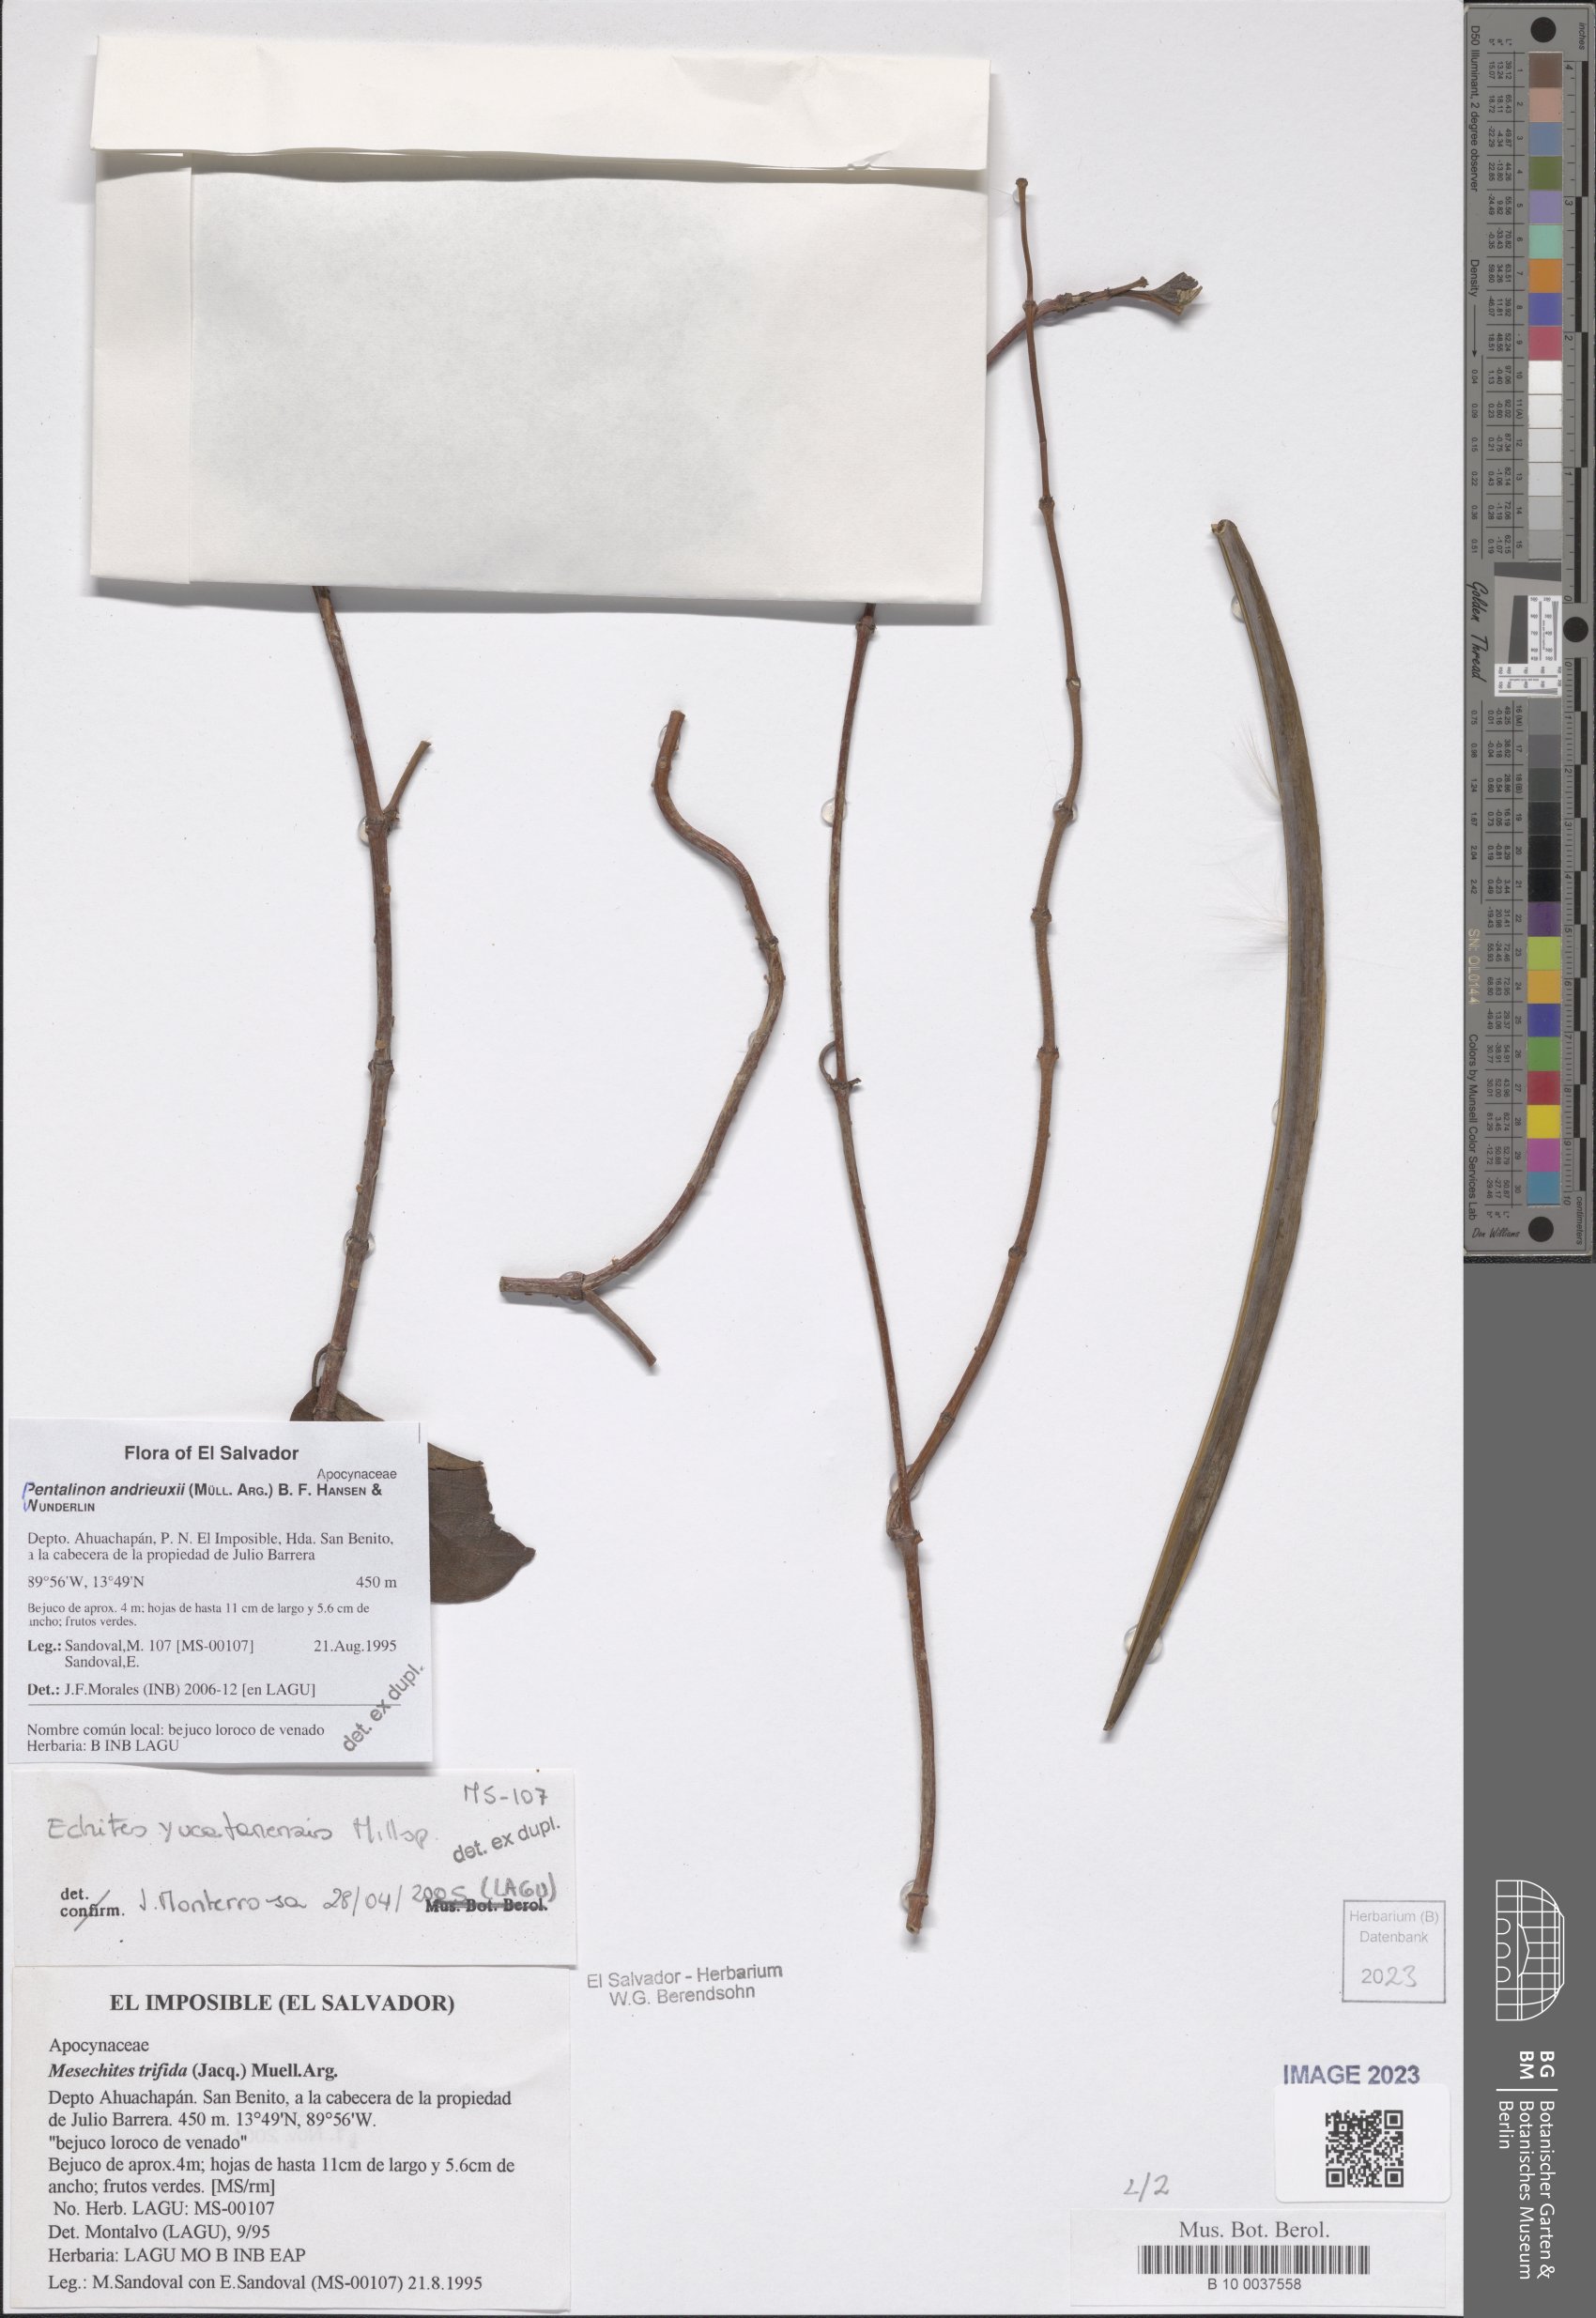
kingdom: Plantae
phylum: Tracheophyta
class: Magnoliopsida
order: Gentianales
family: Apocynaceae
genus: Pentalinon
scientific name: Pentalinon andrieuxii
